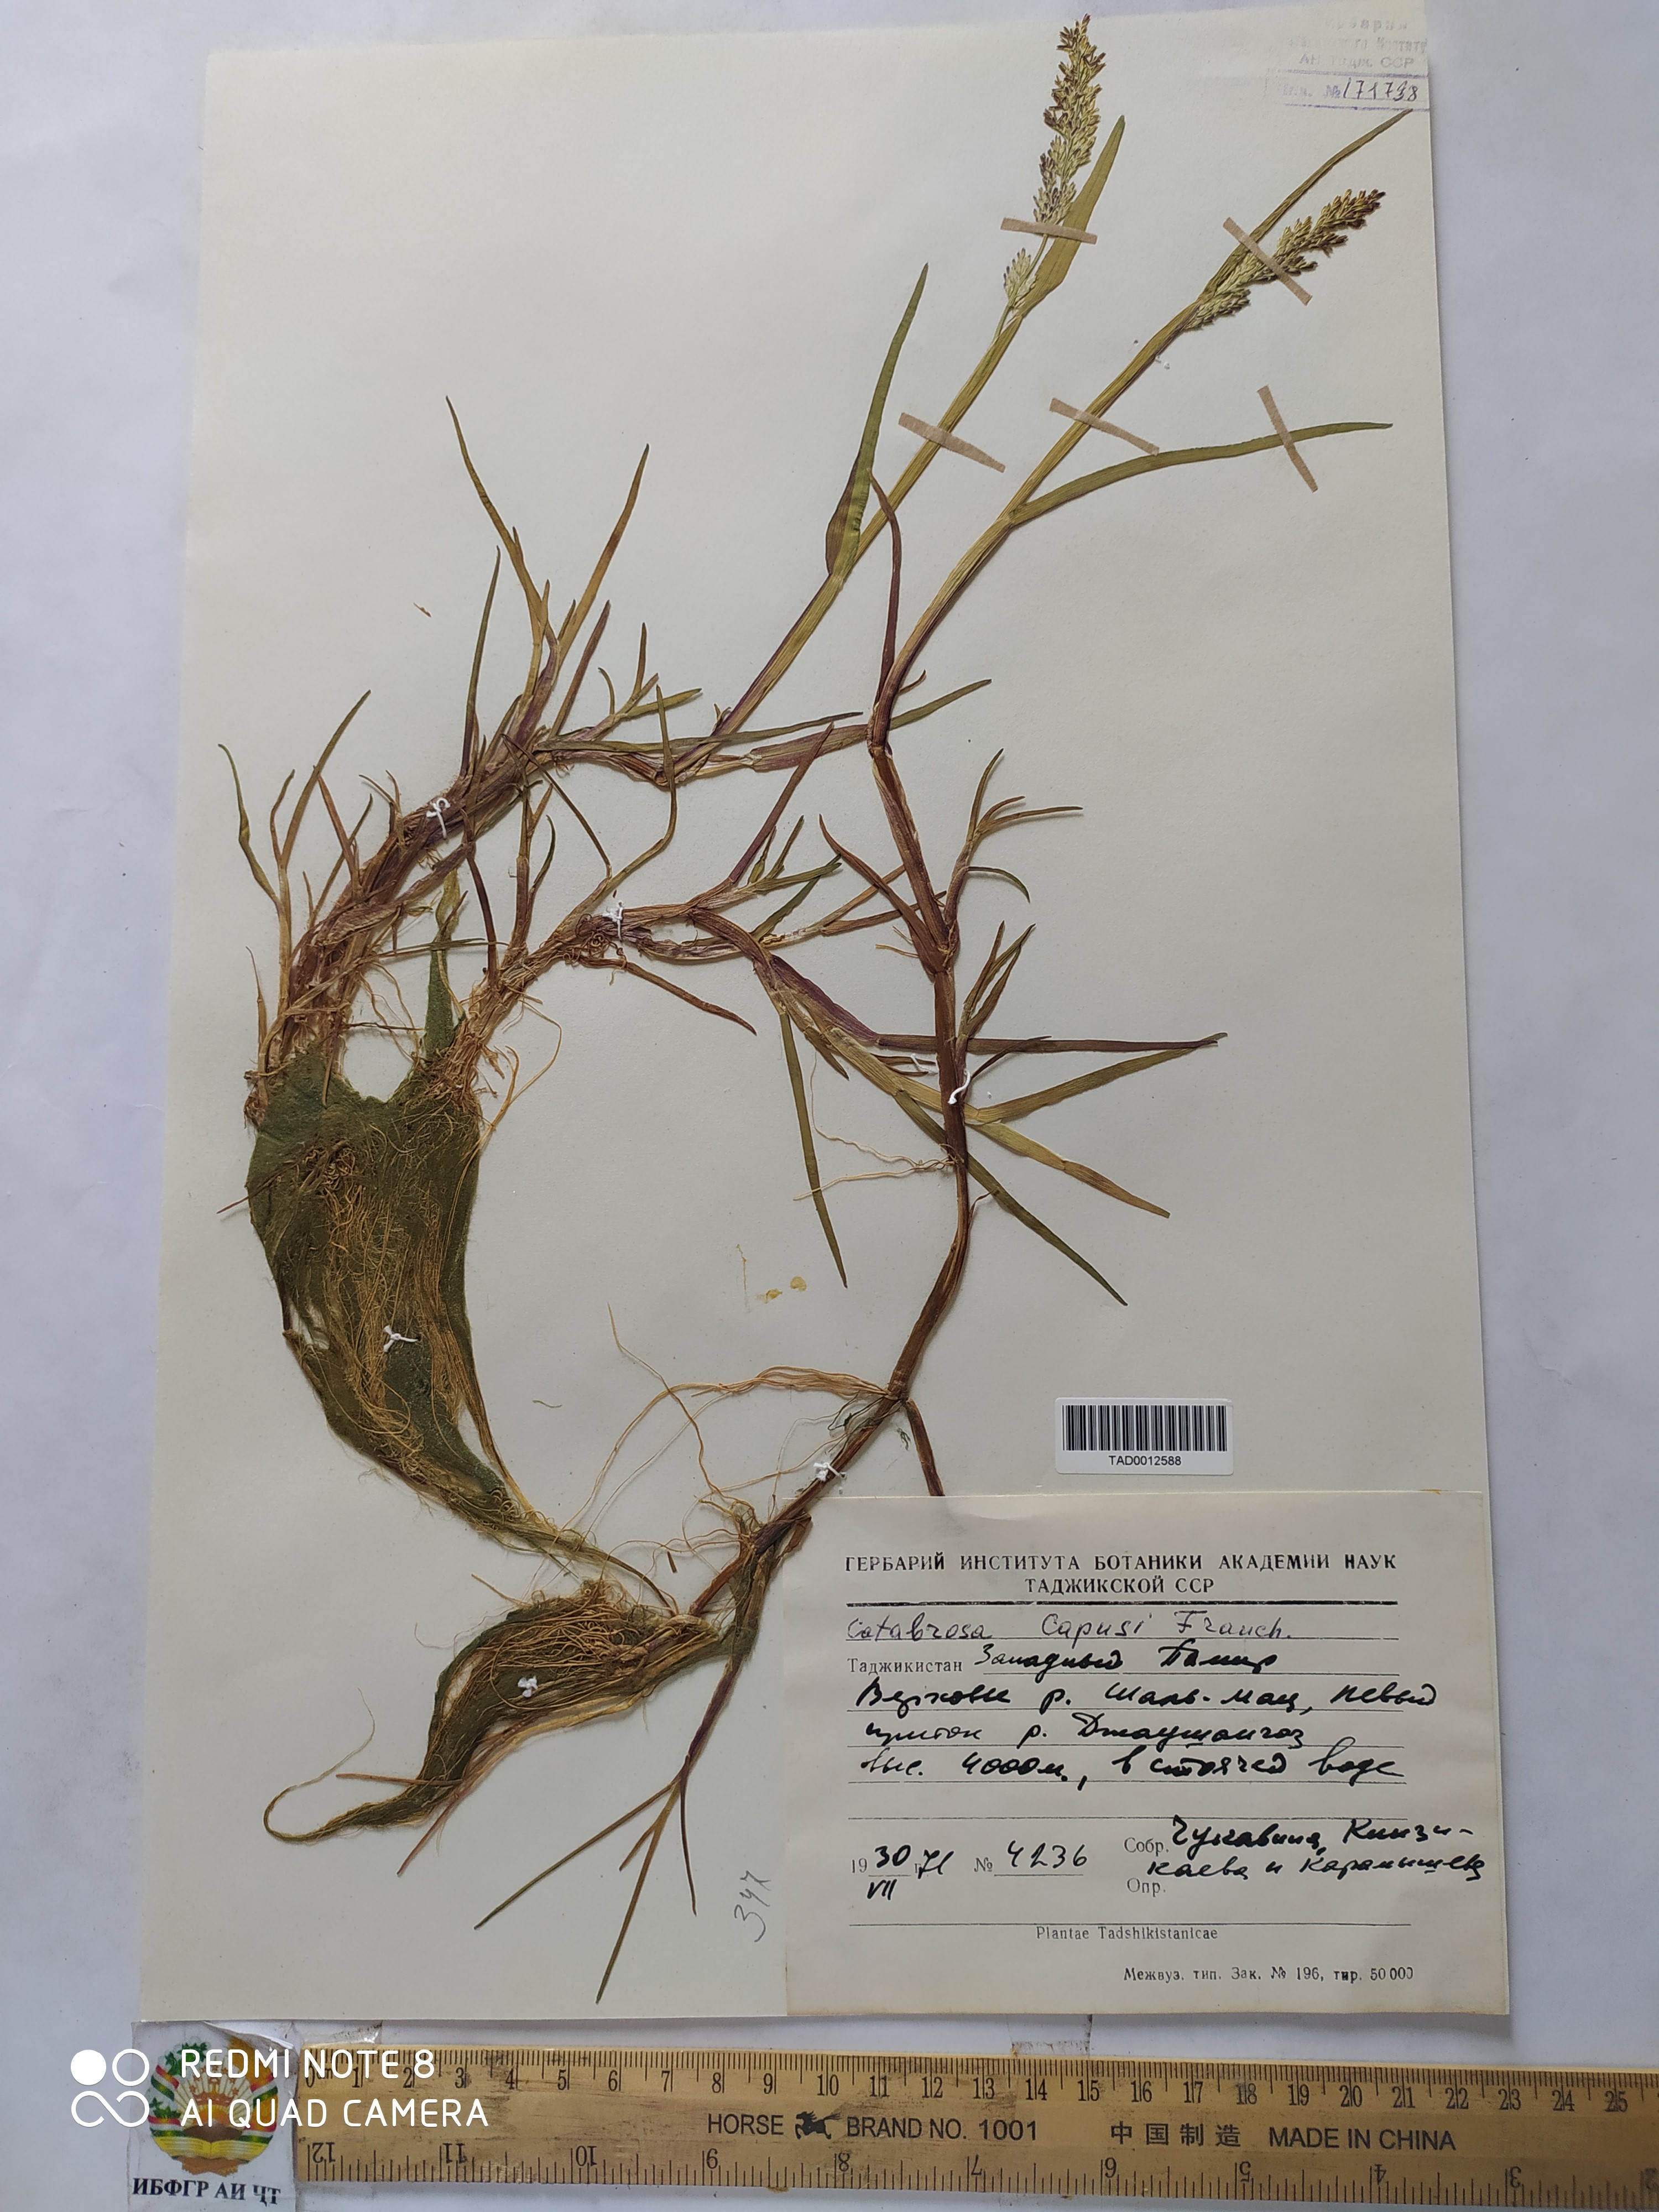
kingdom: Plantae
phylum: Tracheophyta
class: Liliopsida
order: Poales
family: Poaceae
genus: Catabrosa
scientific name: Catabrosa aquatica
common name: Whorl-grass
